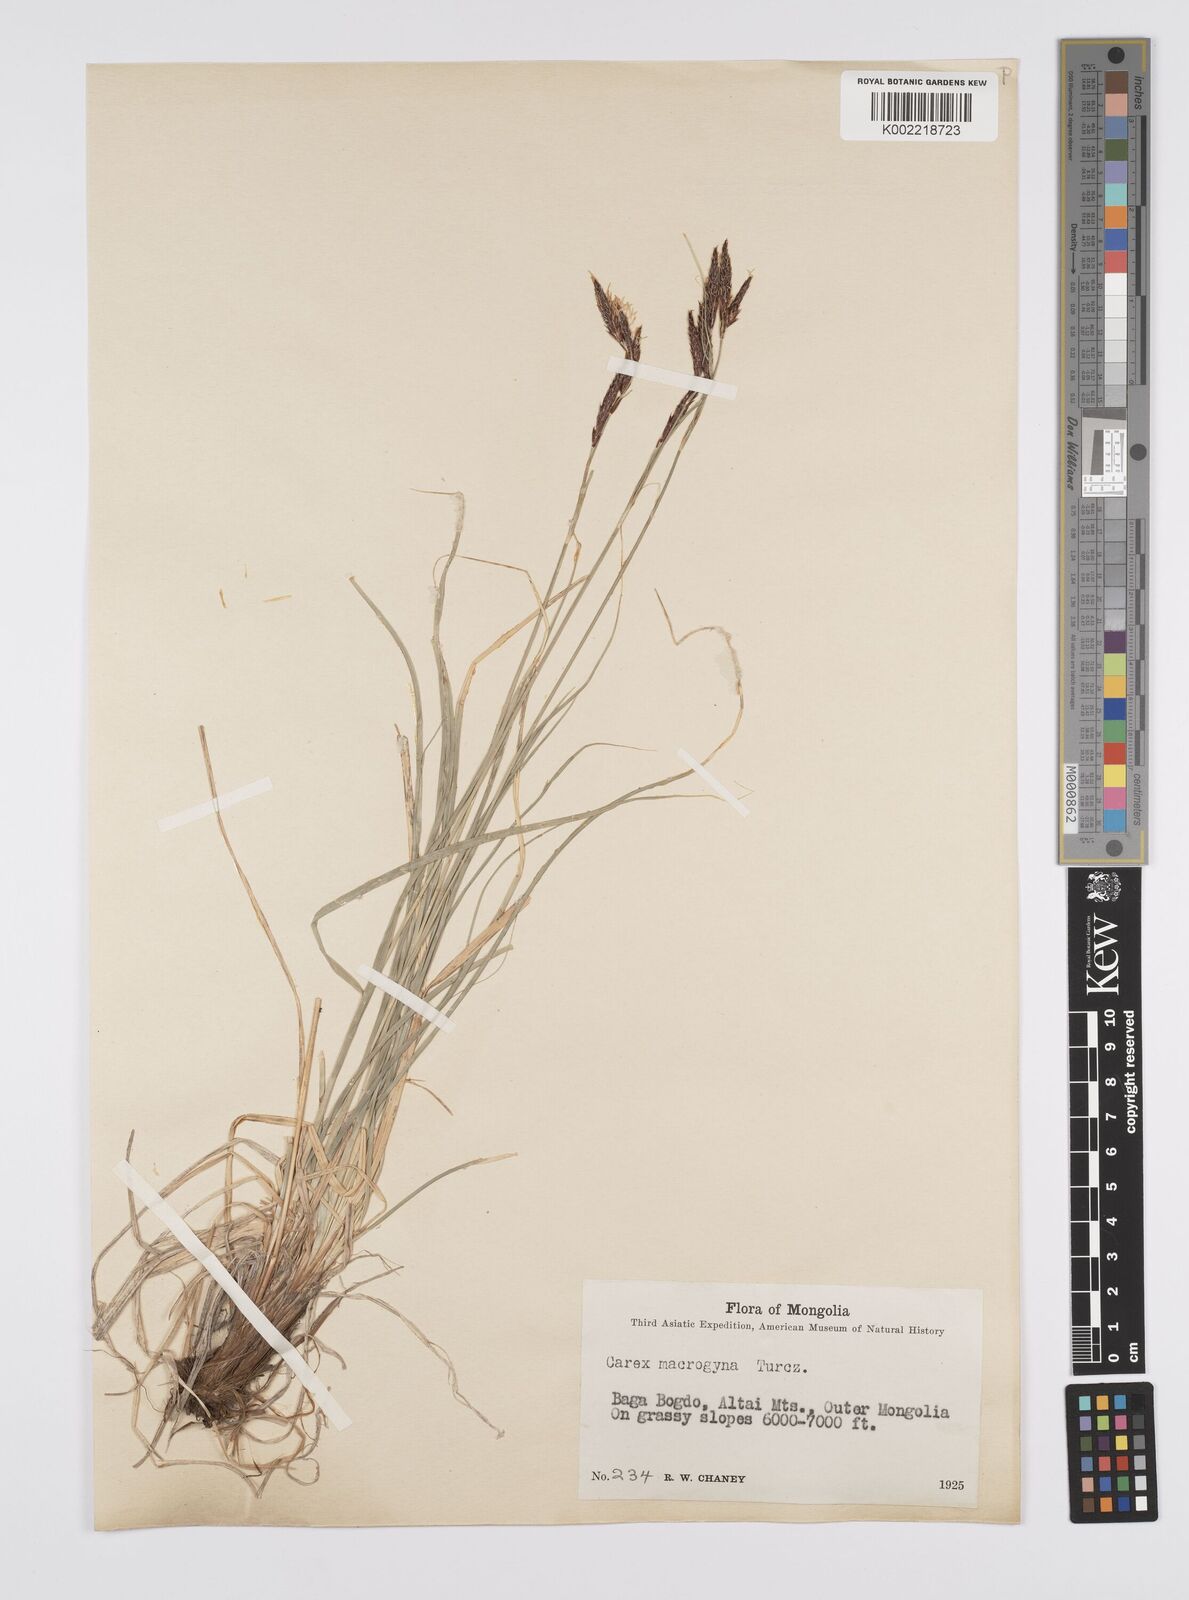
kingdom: Plantae
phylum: Tracheophyta
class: Liliopsida
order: Poales
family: Cyperaceae
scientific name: Cyperaceae
